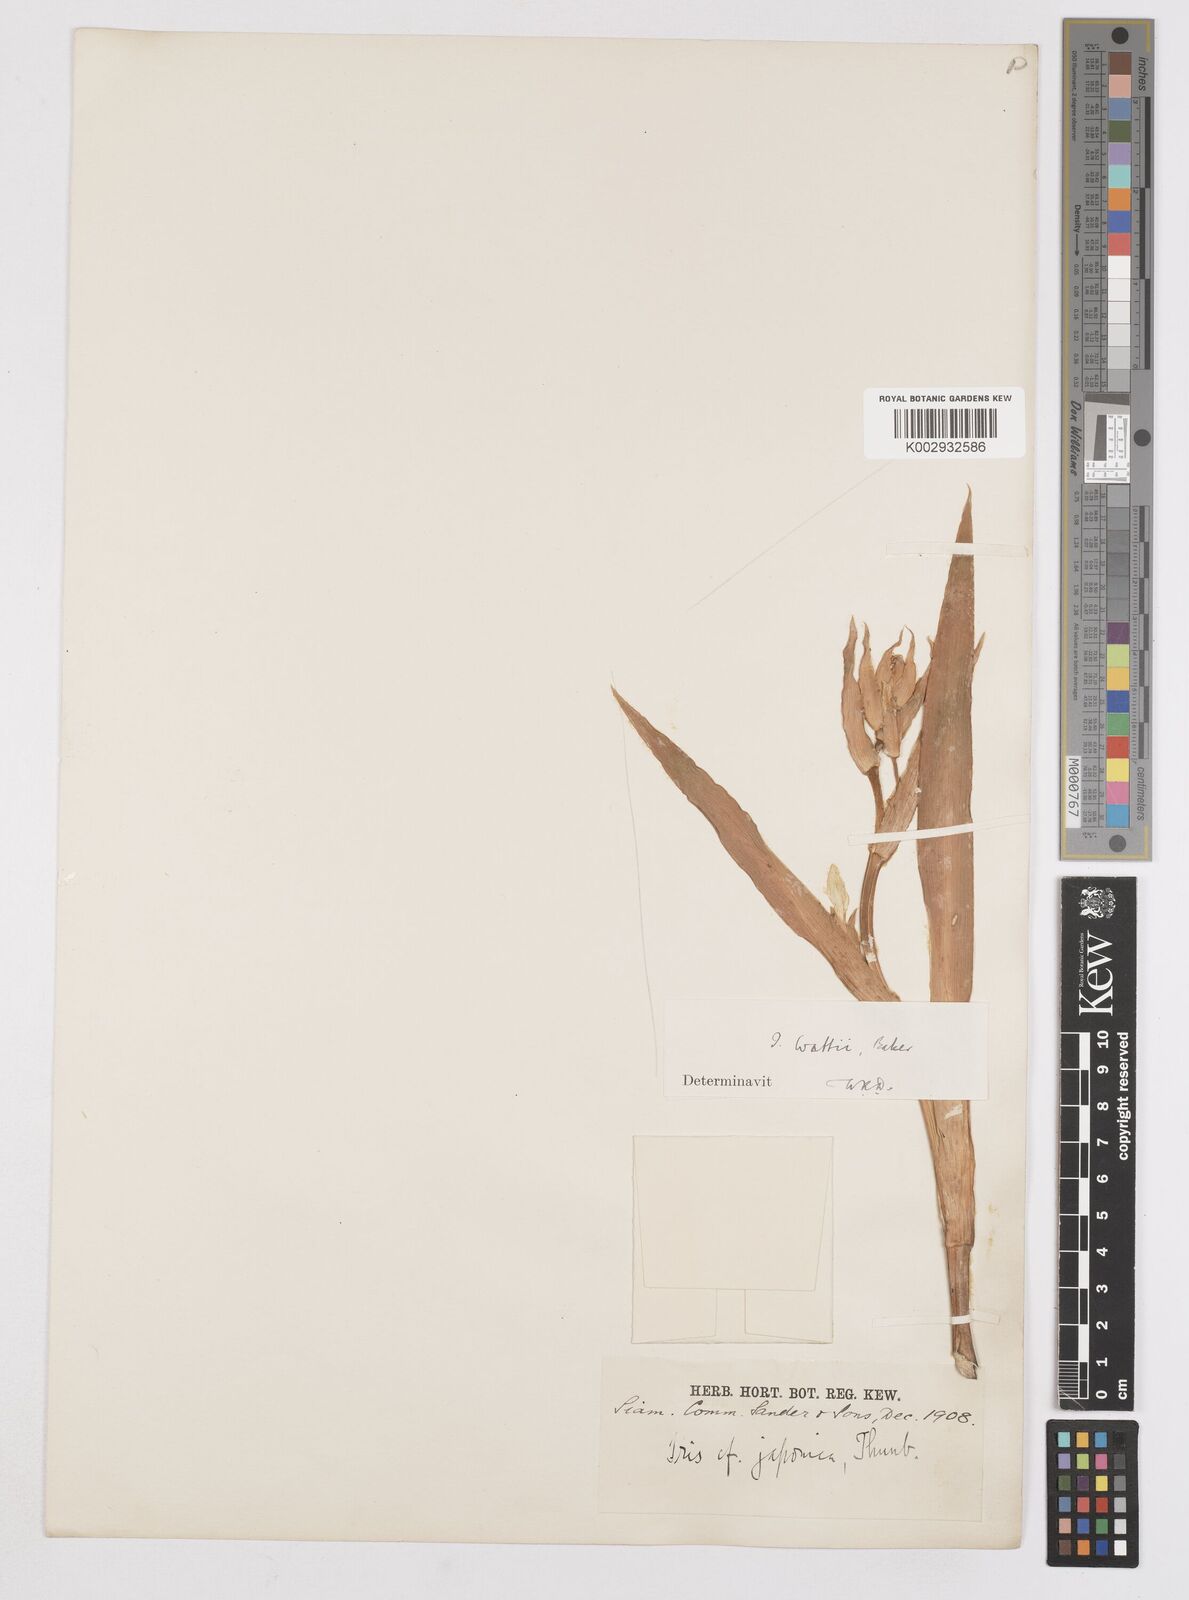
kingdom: Plantae
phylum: Tracheophyta
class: Liliopsida
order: Asparagales
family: Iridaceae
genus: Iris
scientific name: Iris wattii
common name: Fan-shape iris
